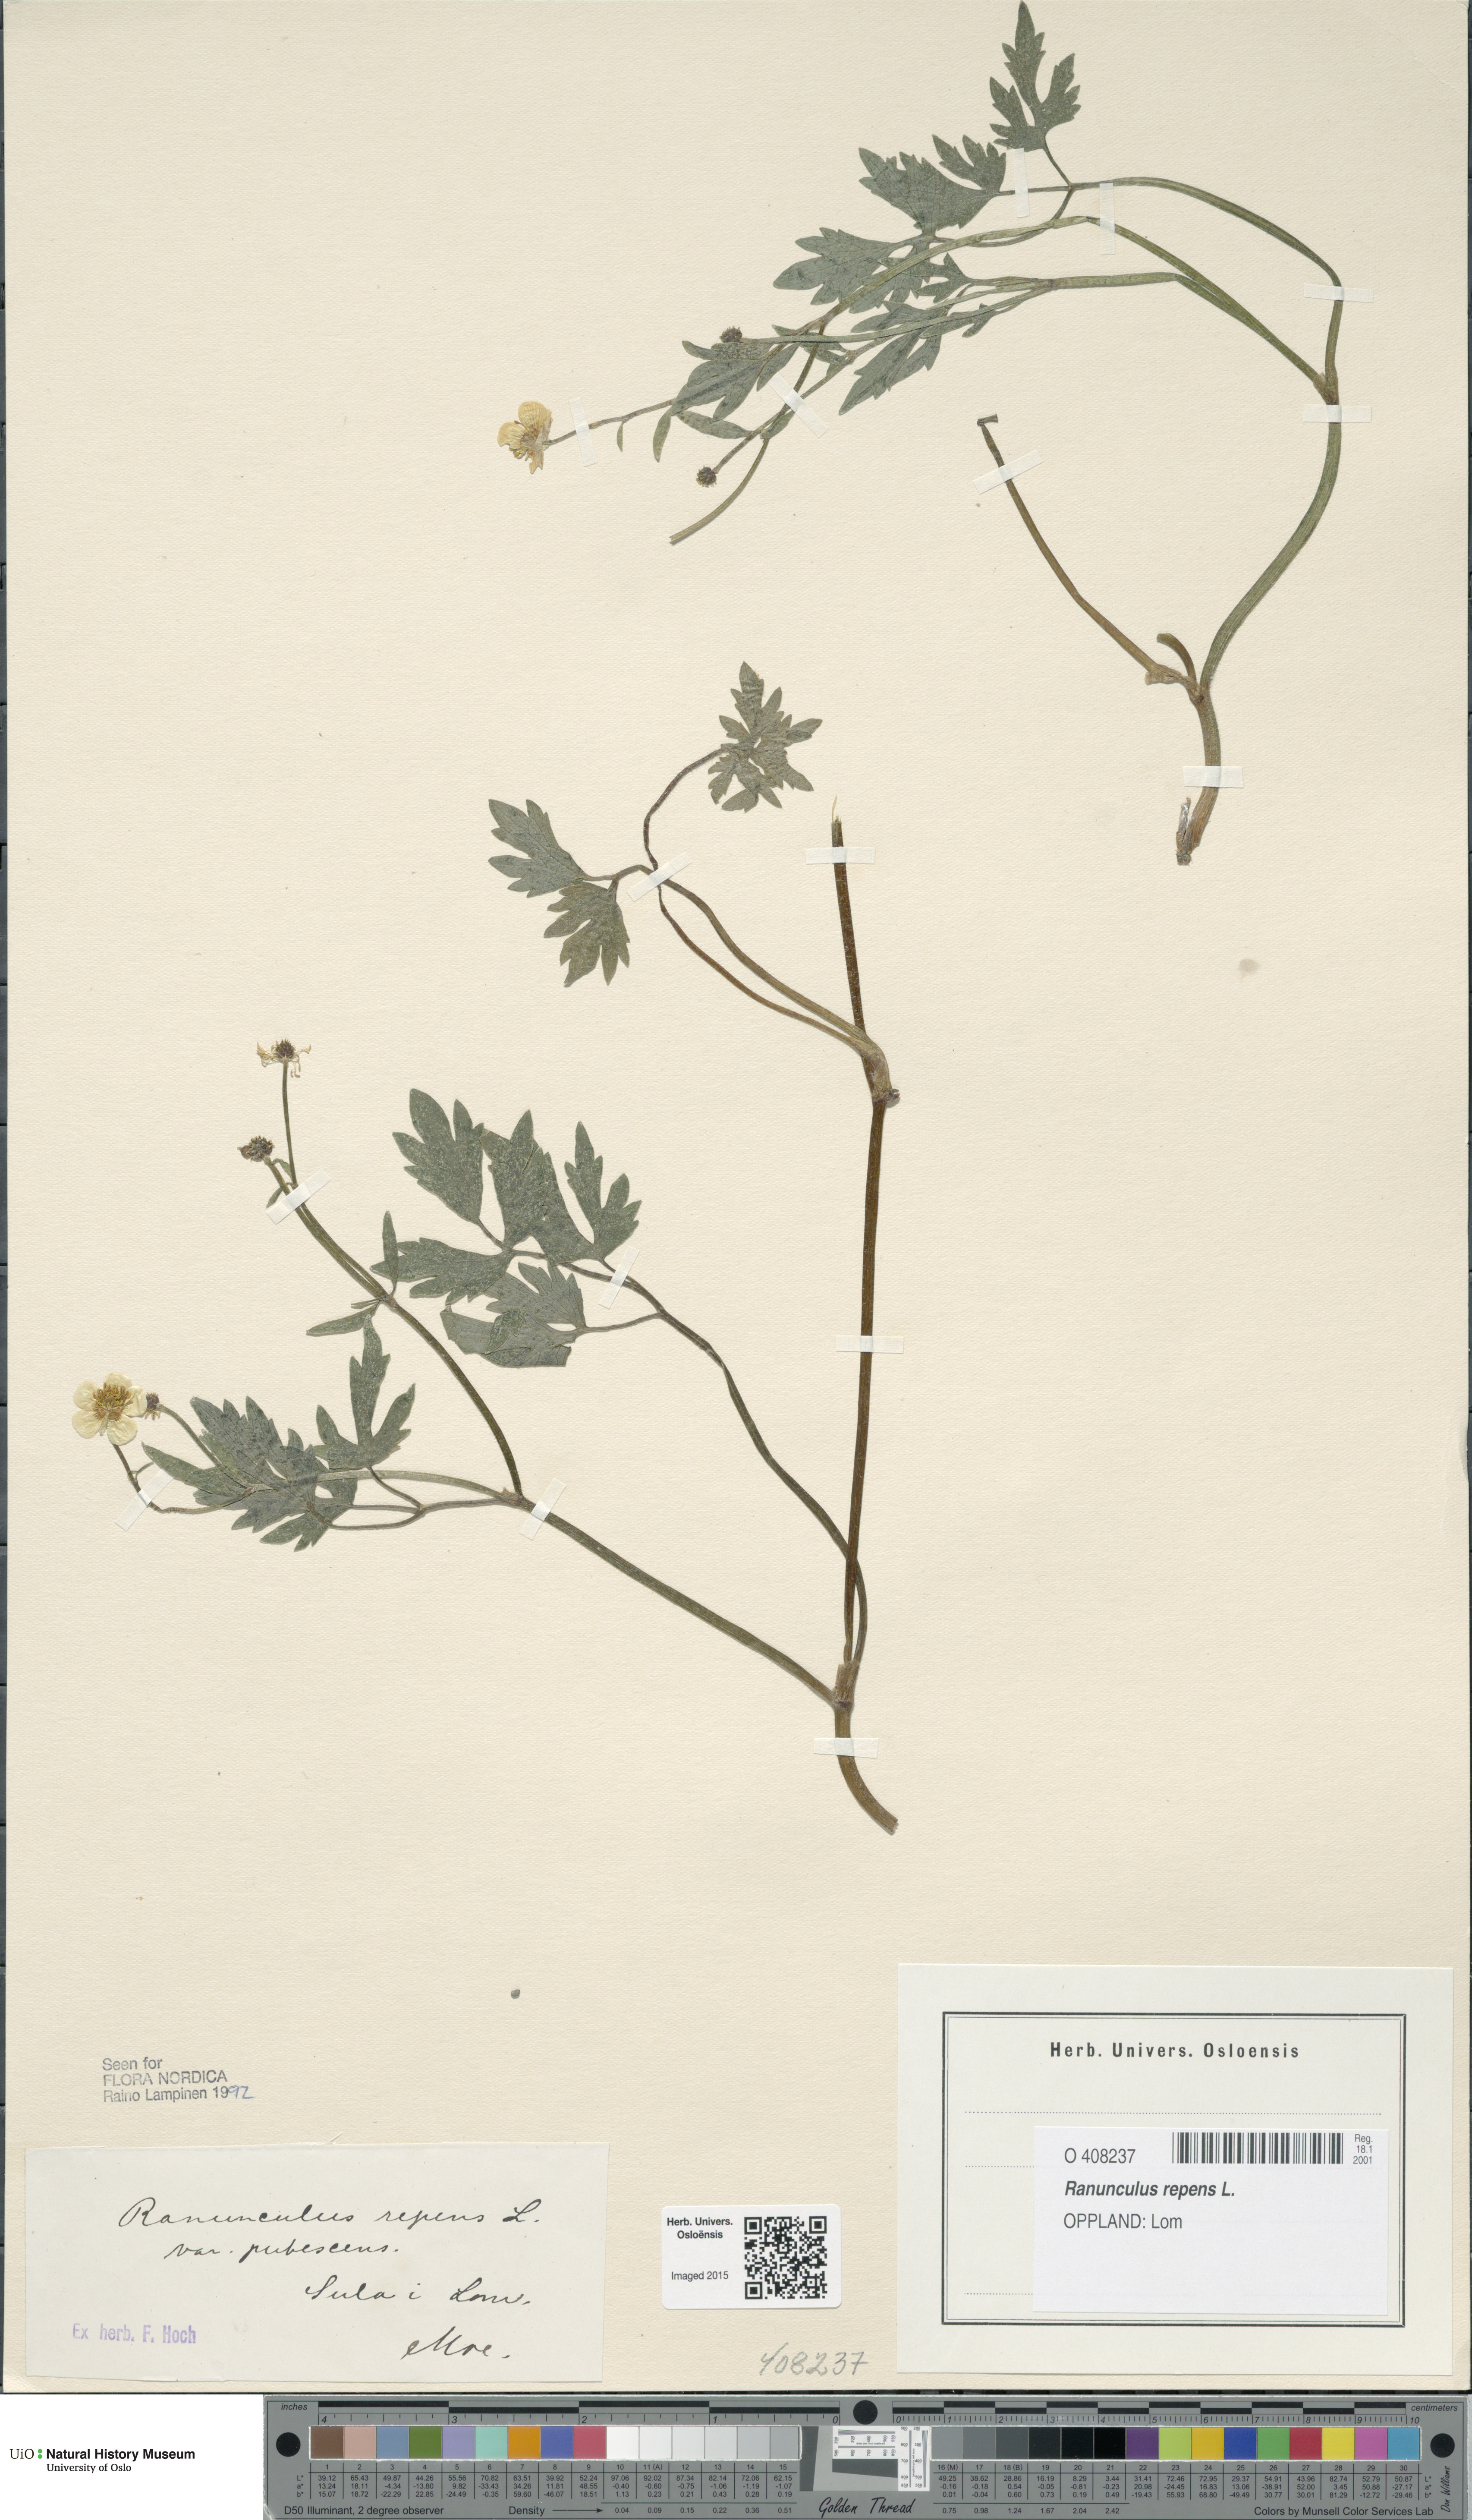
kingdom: Plantae
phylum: Tracheophyta
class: Magnoliopsida
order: Ranunculales
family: Ranunculaceae
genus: Ranunculus
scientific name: Ranunculus repens
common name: Creeping buttercup
